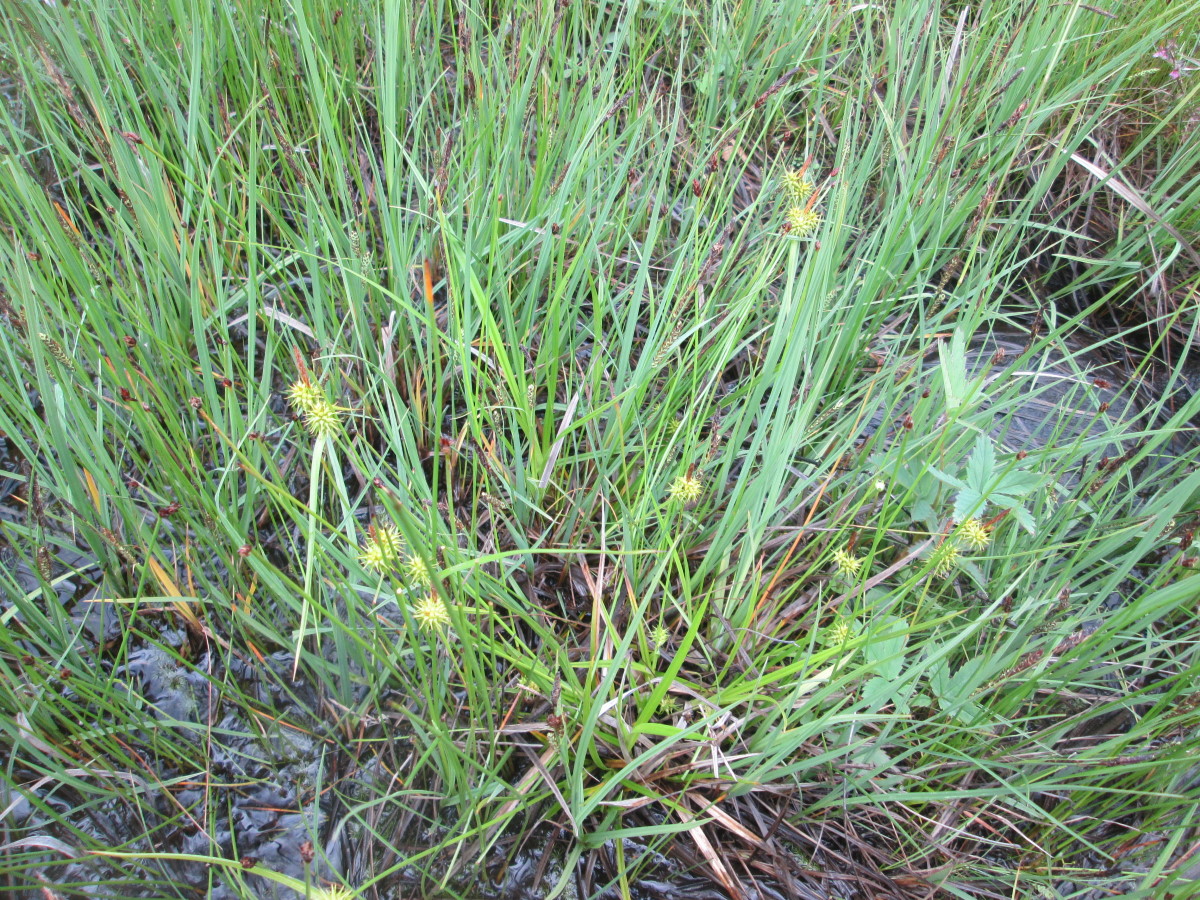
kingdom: Plantae
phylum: Tracheophyta
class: Liliopsida
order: Poales
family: Cyperaceae
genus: Carex
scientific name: Carex flava
